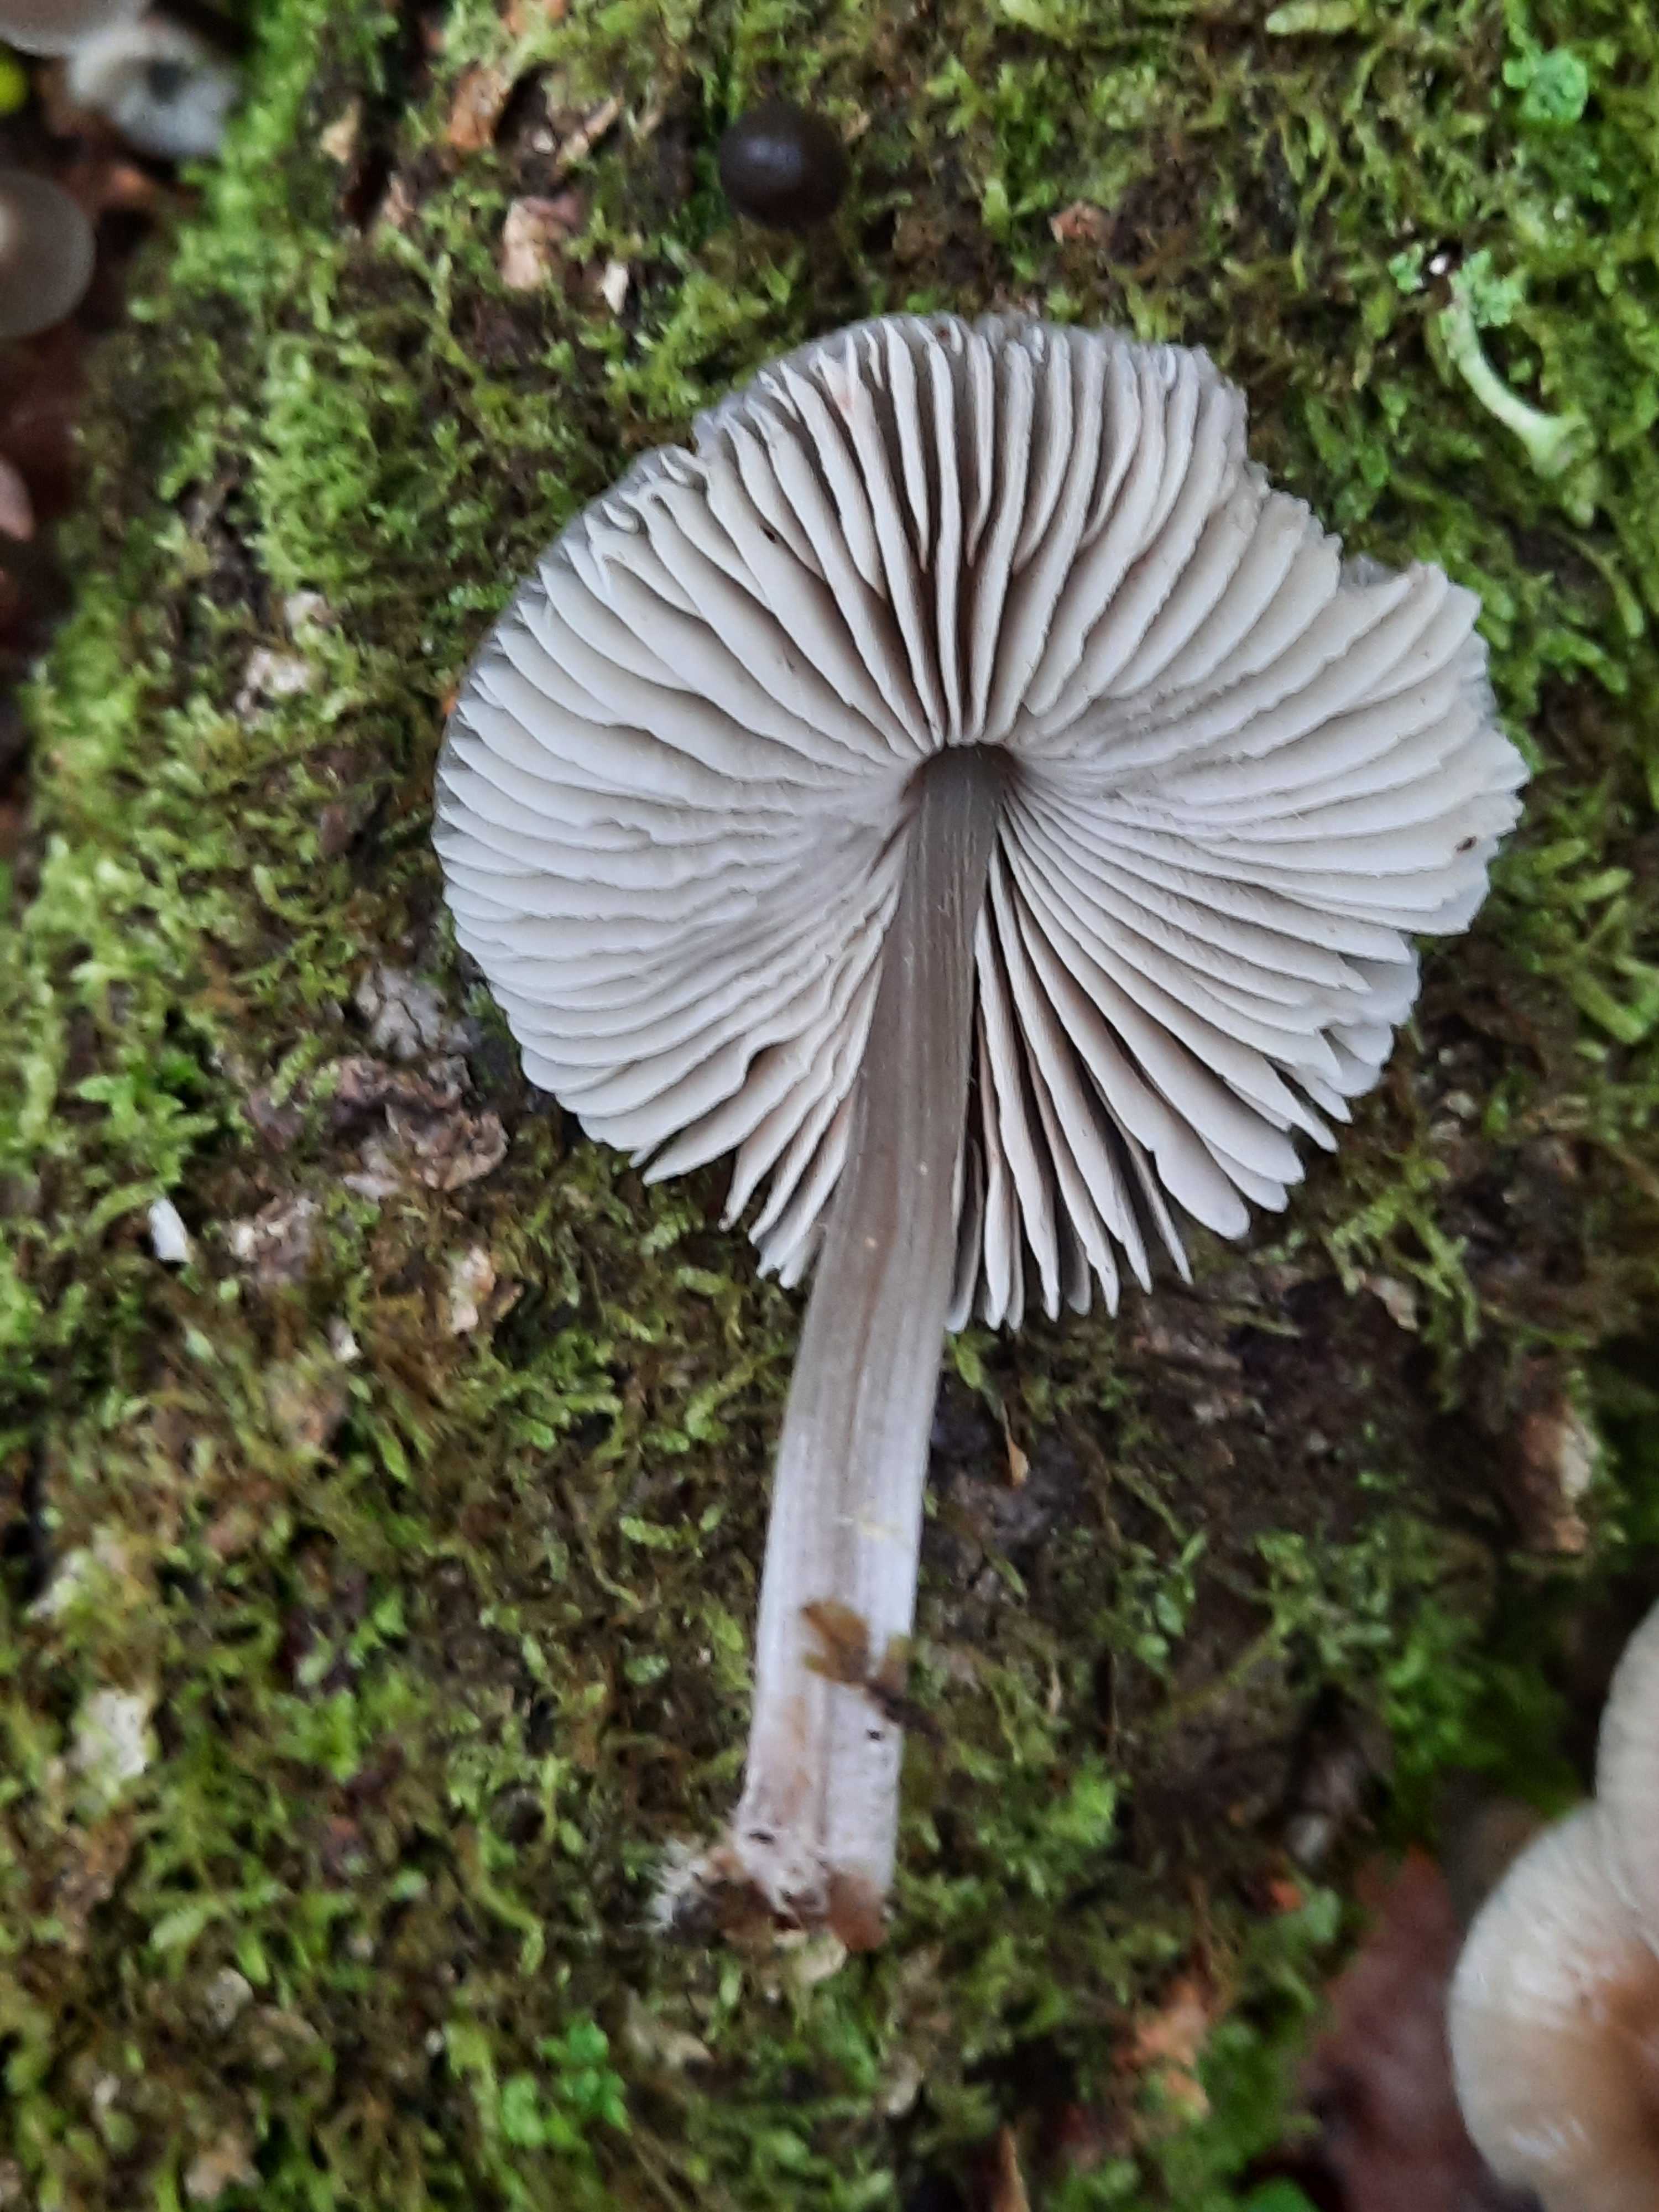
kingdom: Fungi
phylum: Basidiomycota
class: Agaricomycetes
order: Agaricales
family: Mycenaceae
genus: Mycena
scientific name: Mycena polygramma
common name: mangestribet huesvamp
